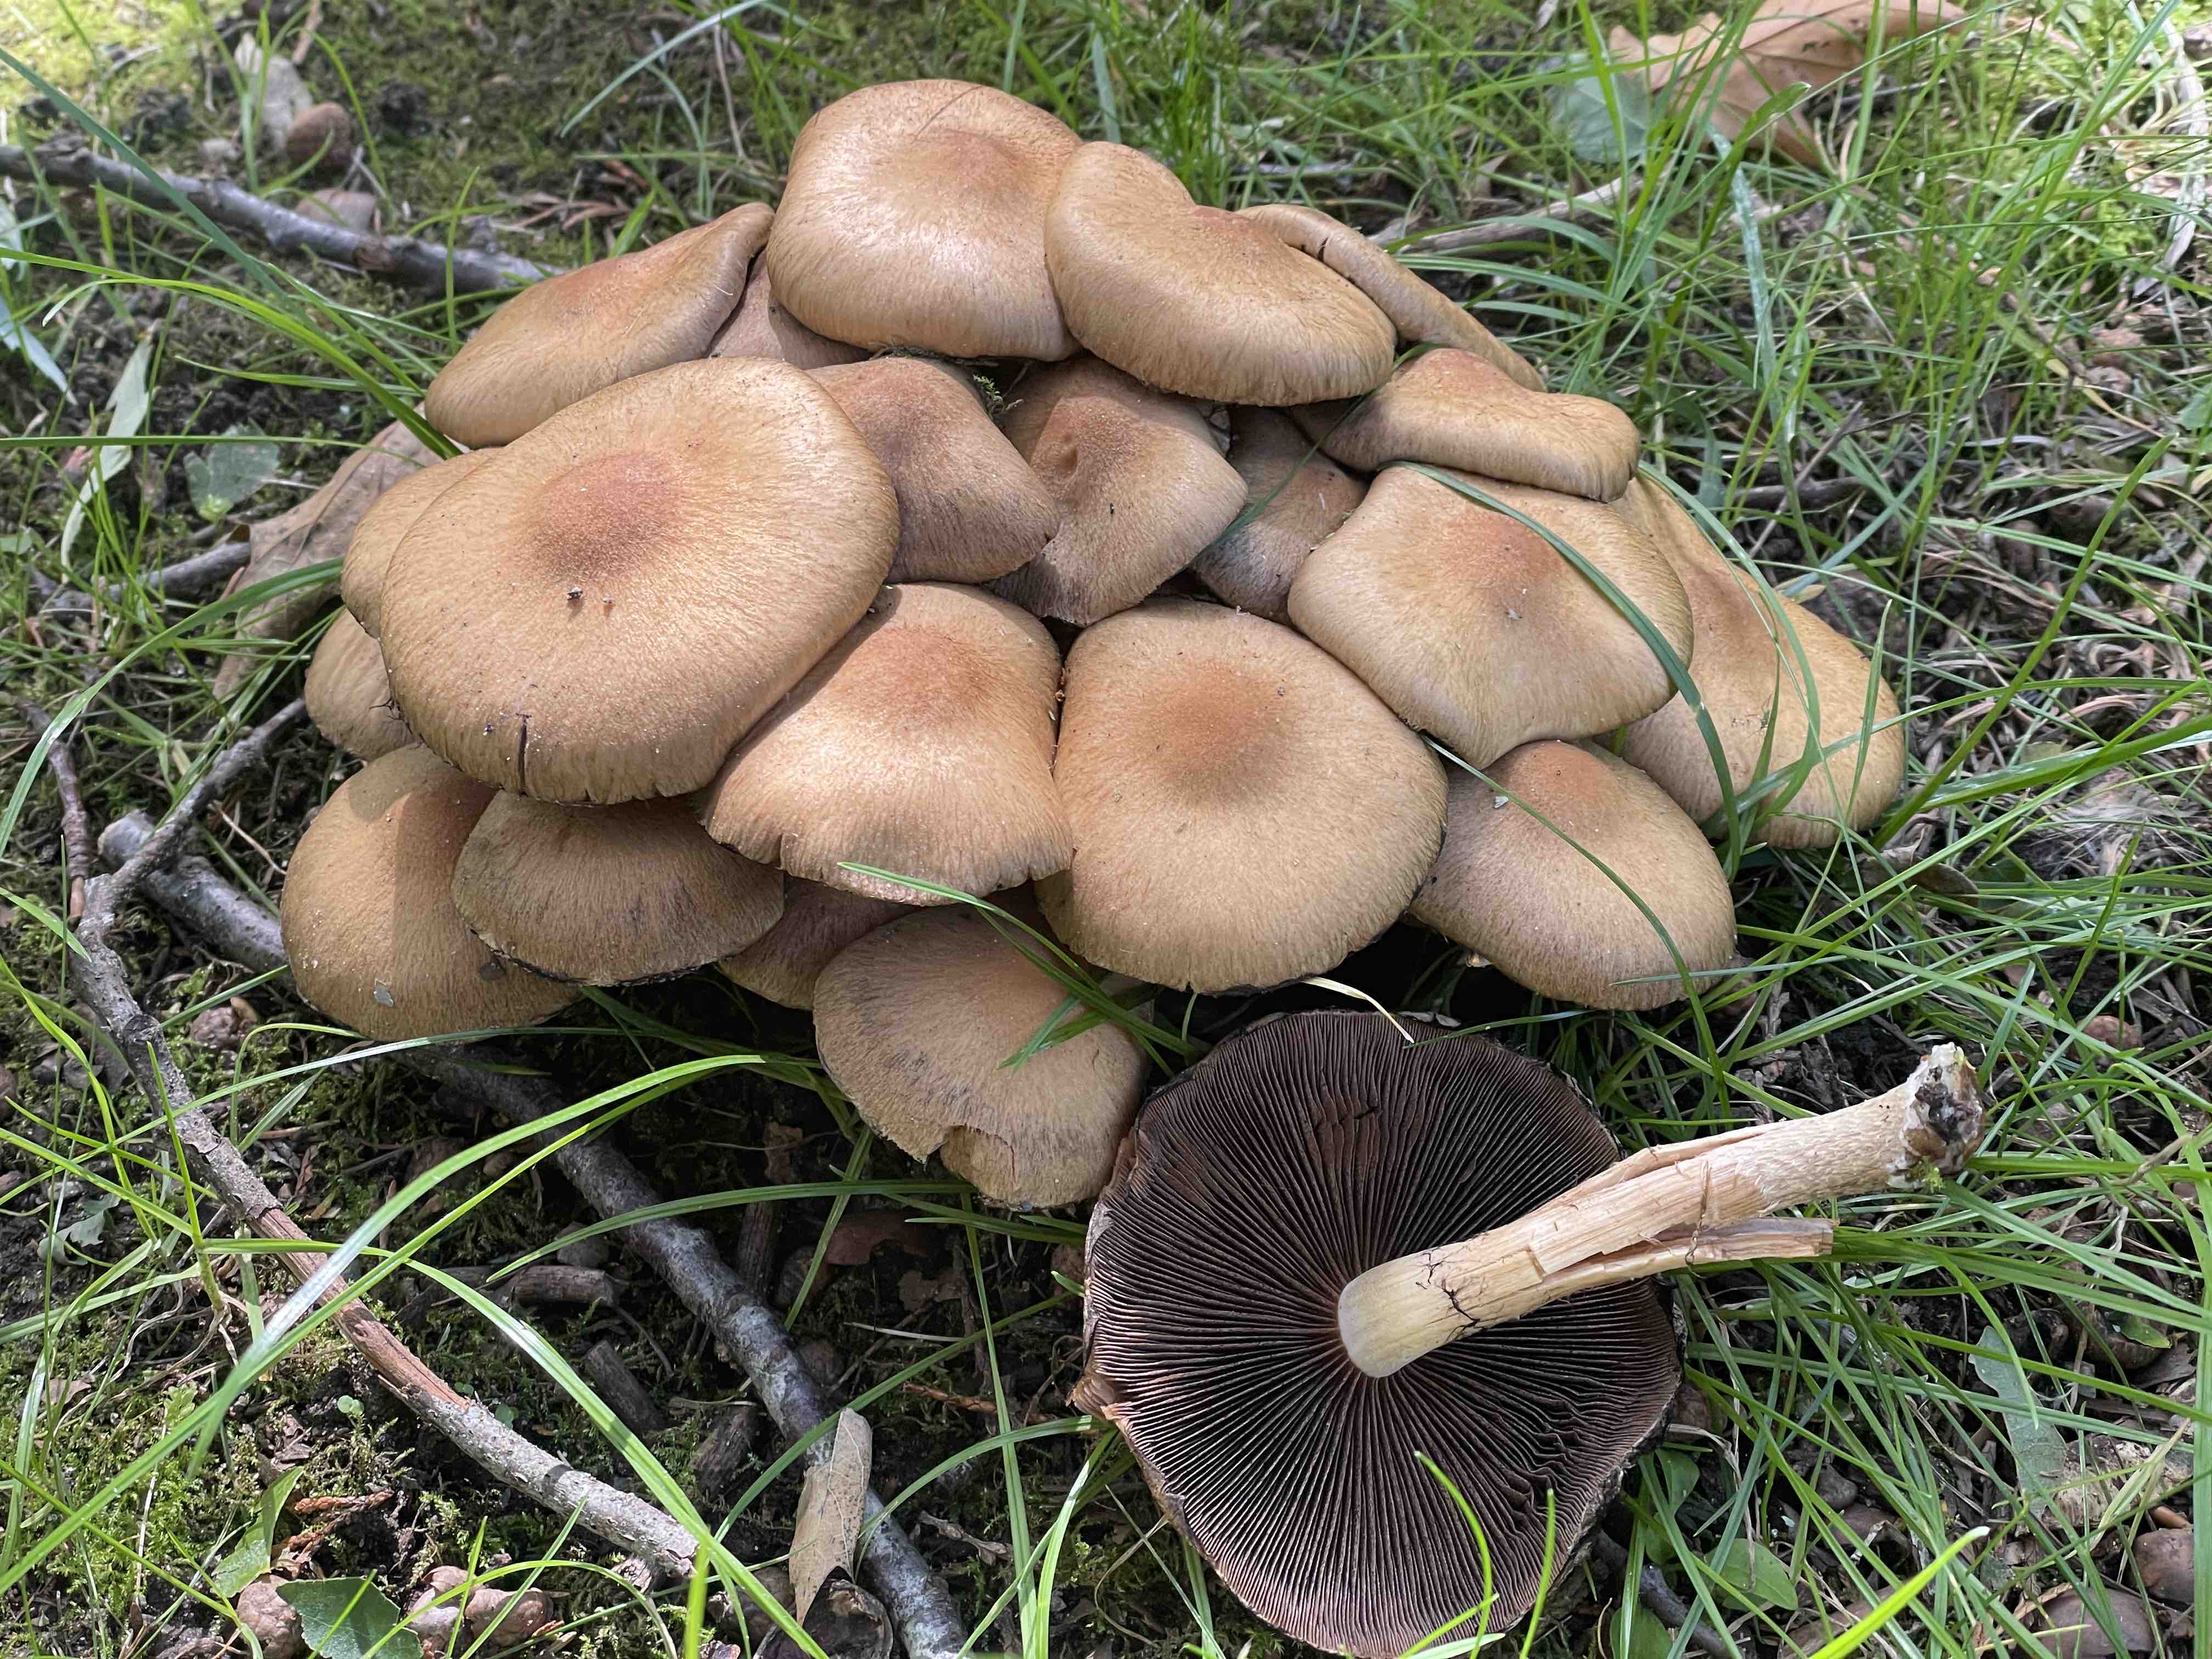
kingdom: Fungi
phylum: Basidiomycota
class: Agaricomycetes
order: Agaricales
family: Psathyrellaceae
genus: Lacrymaria
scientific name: Lacrymaria lacrymabunda
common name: grædende mørkhat
